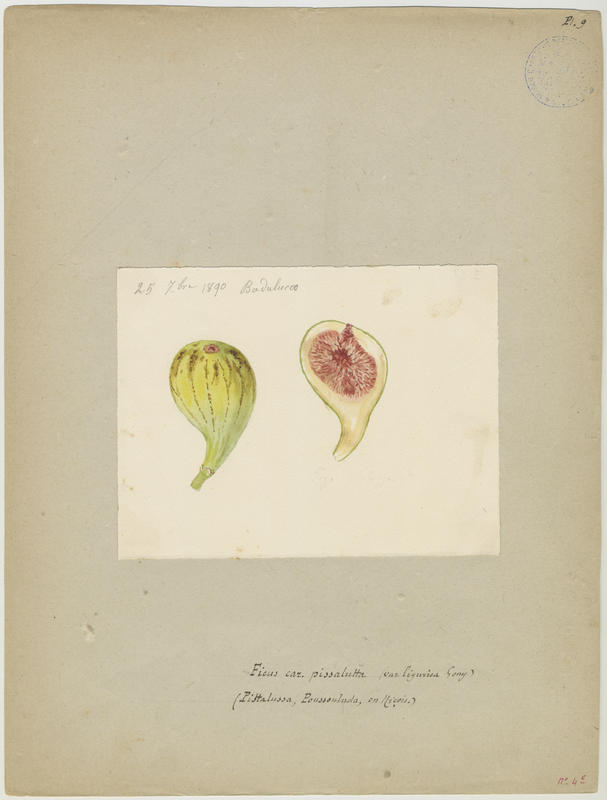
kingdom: Plantae
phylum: Tracheophyta
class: Magnoliopsida
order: Rosales
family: Moraceae
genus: Ficus
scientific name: Ficus carica
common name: Fig
